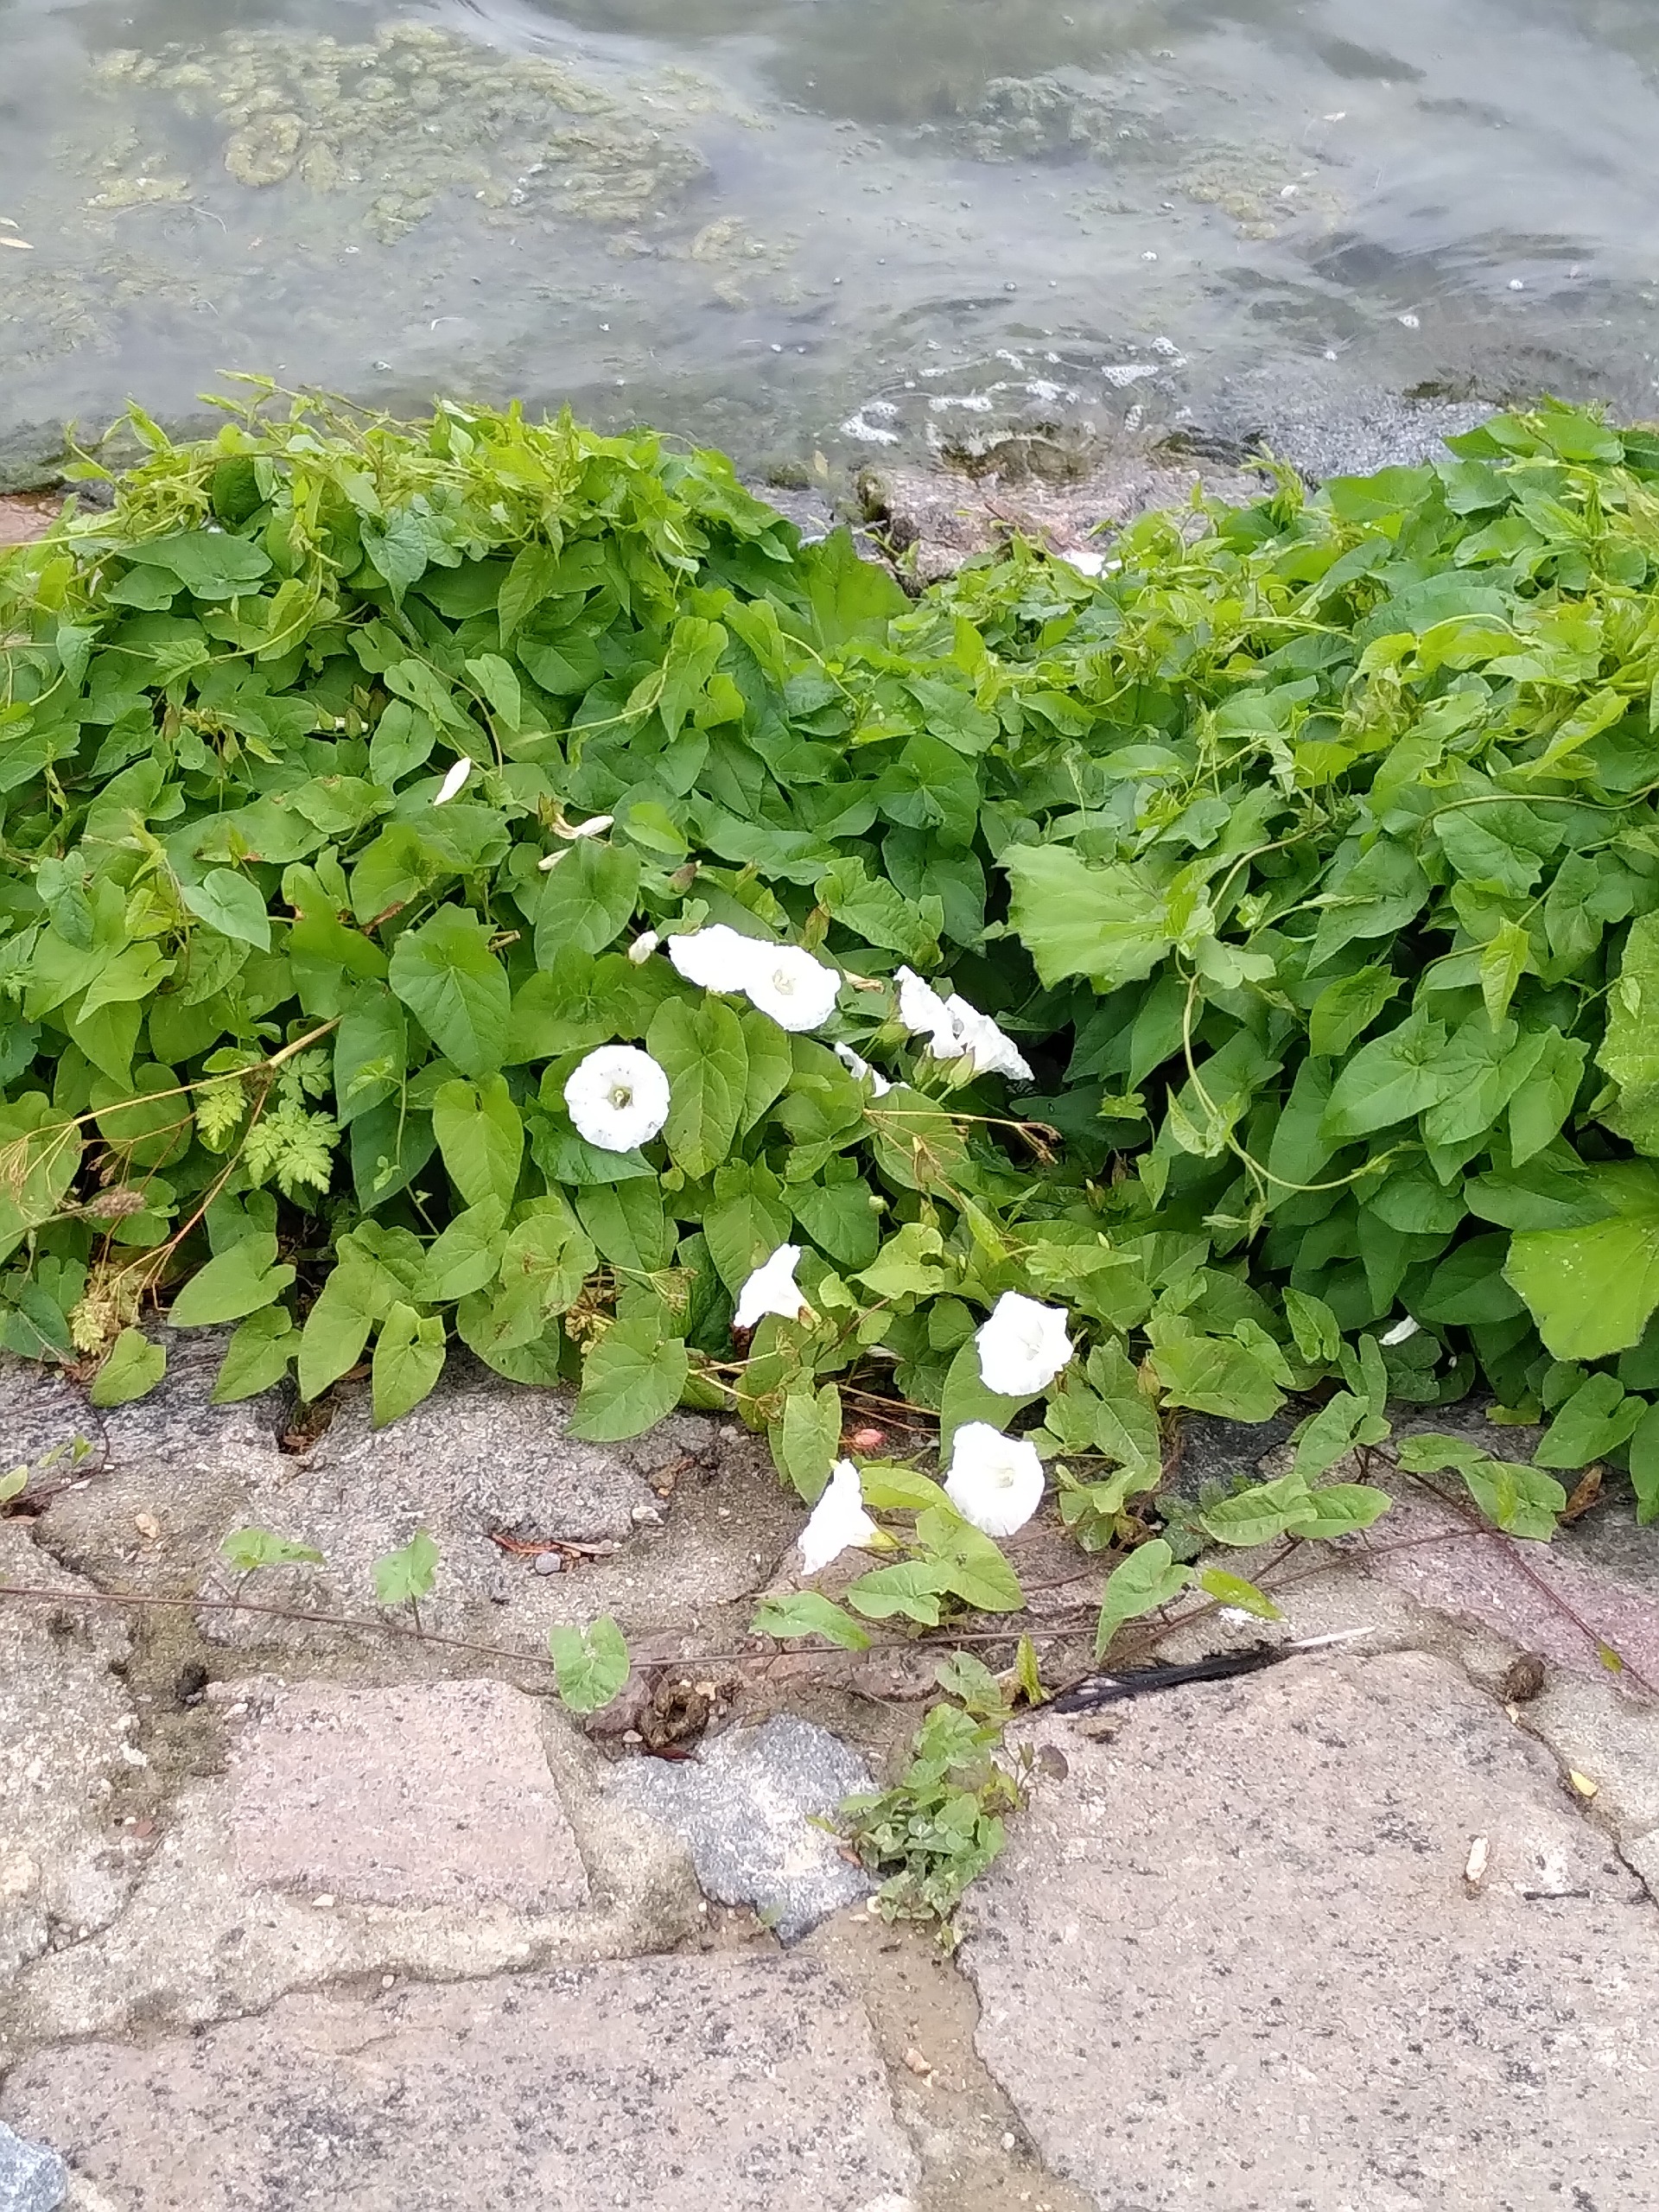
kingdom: Plantae
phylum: Tracheophyta
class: Magnoliopsida
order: Solanales
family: Convolvulaceae
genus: Calystegia
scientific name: Calystegia sepium
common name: Gærde-snerle
